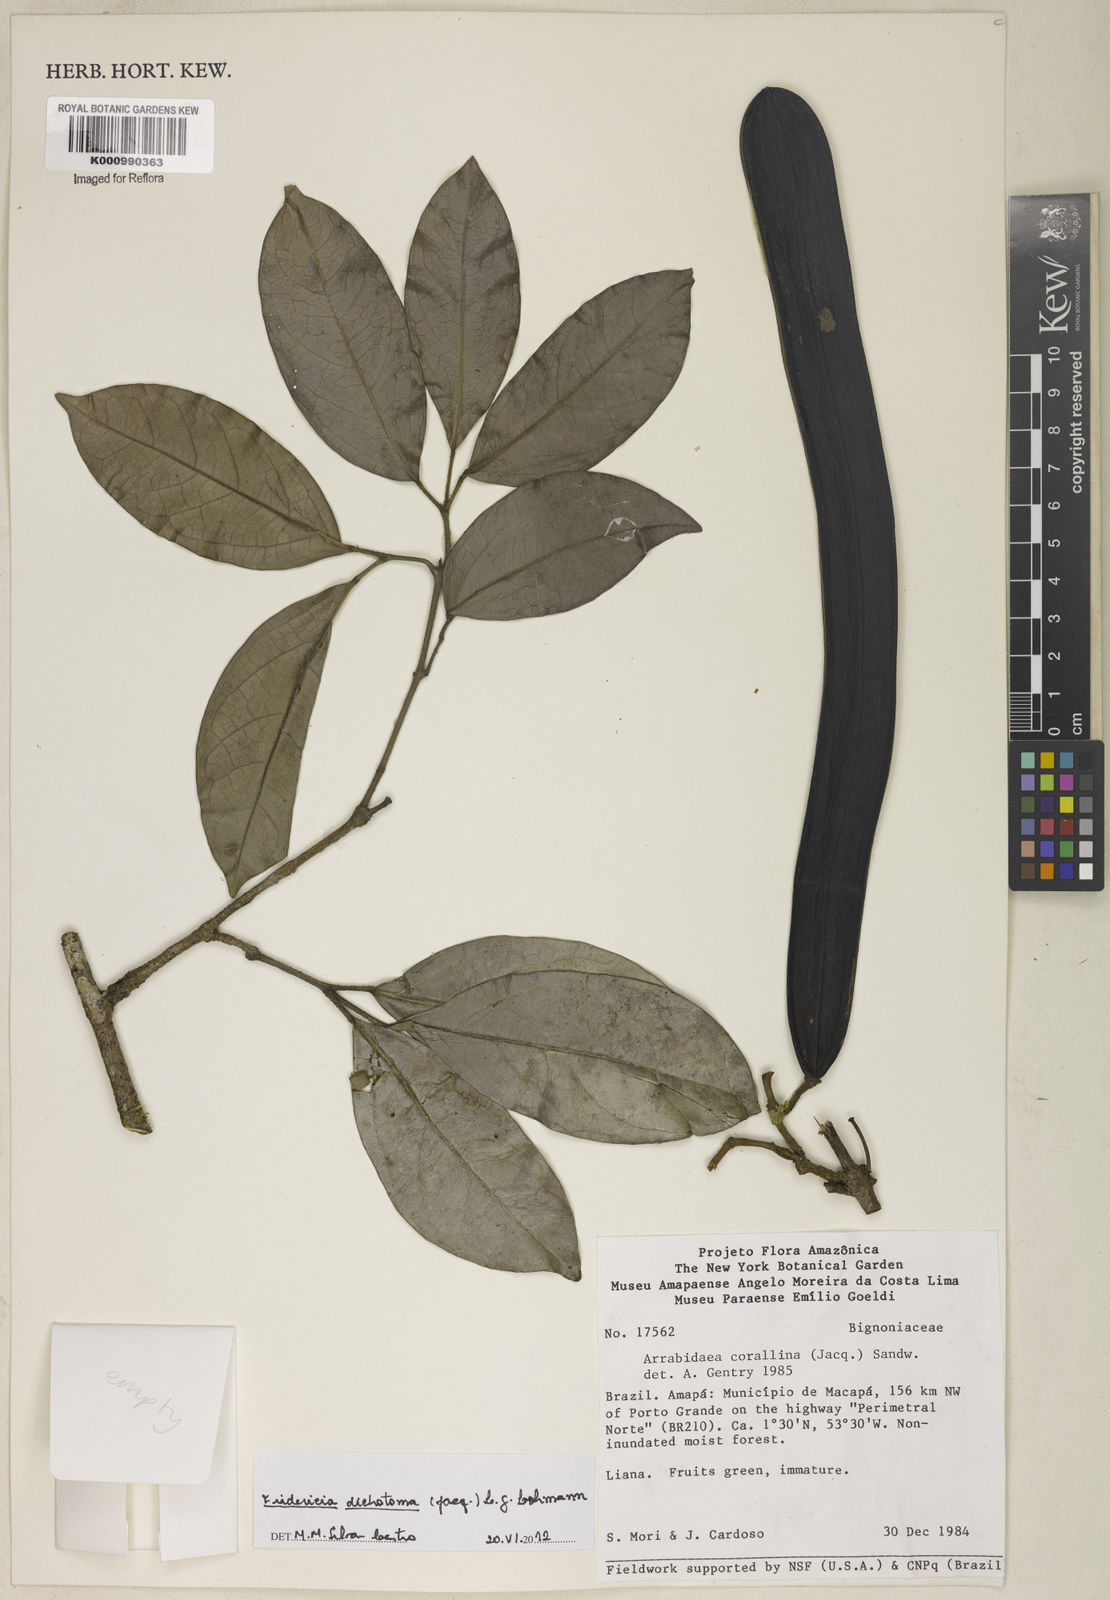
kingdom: Plantae
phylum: Tracheophyta
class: Magnoliopsida
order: Lamiales
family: Bignoniaceae
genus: Tanaecium
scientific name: Tanaecium dichotomum
